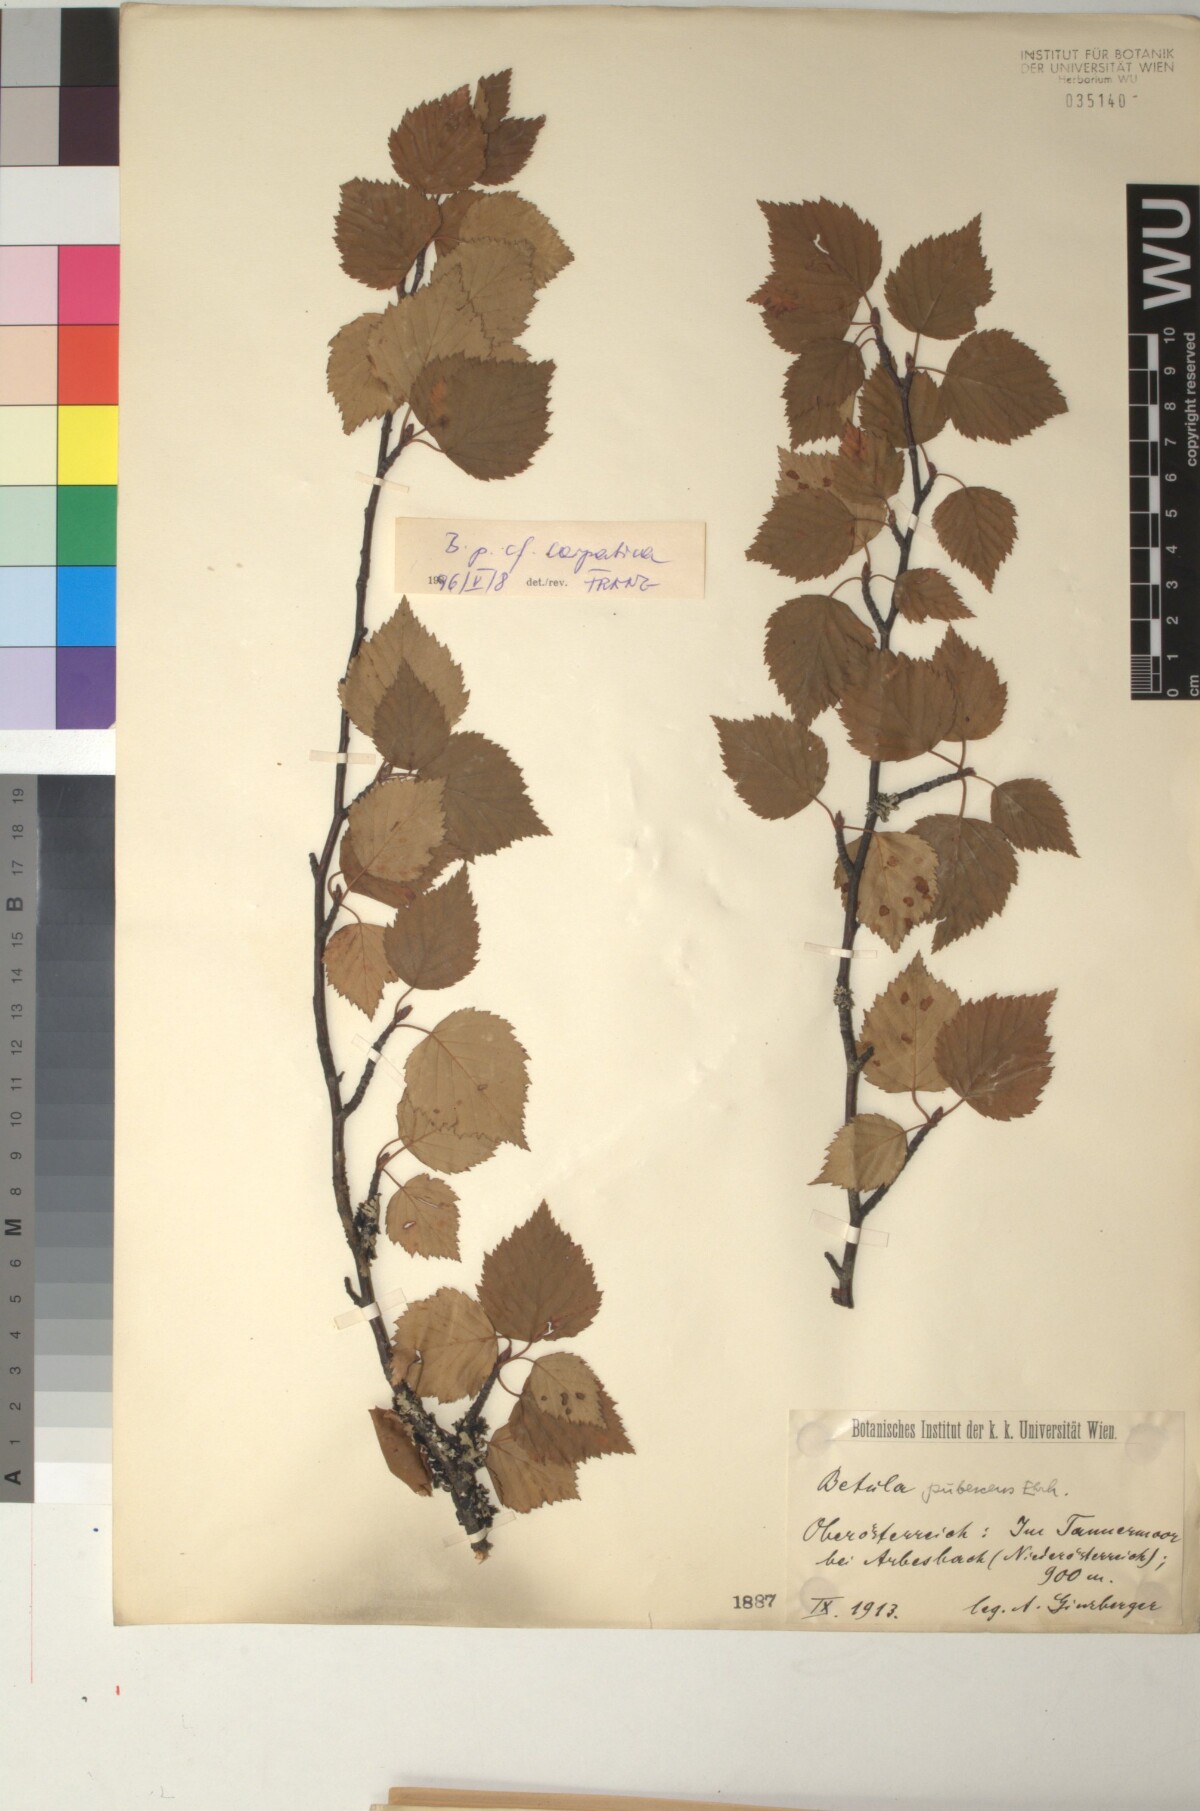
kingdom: Plantae
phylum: Tracheophyta
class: Magnoliopsida
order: Fagales
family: Betulaceae
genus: Betula
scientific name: Betula pubescens
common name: Downy birch
